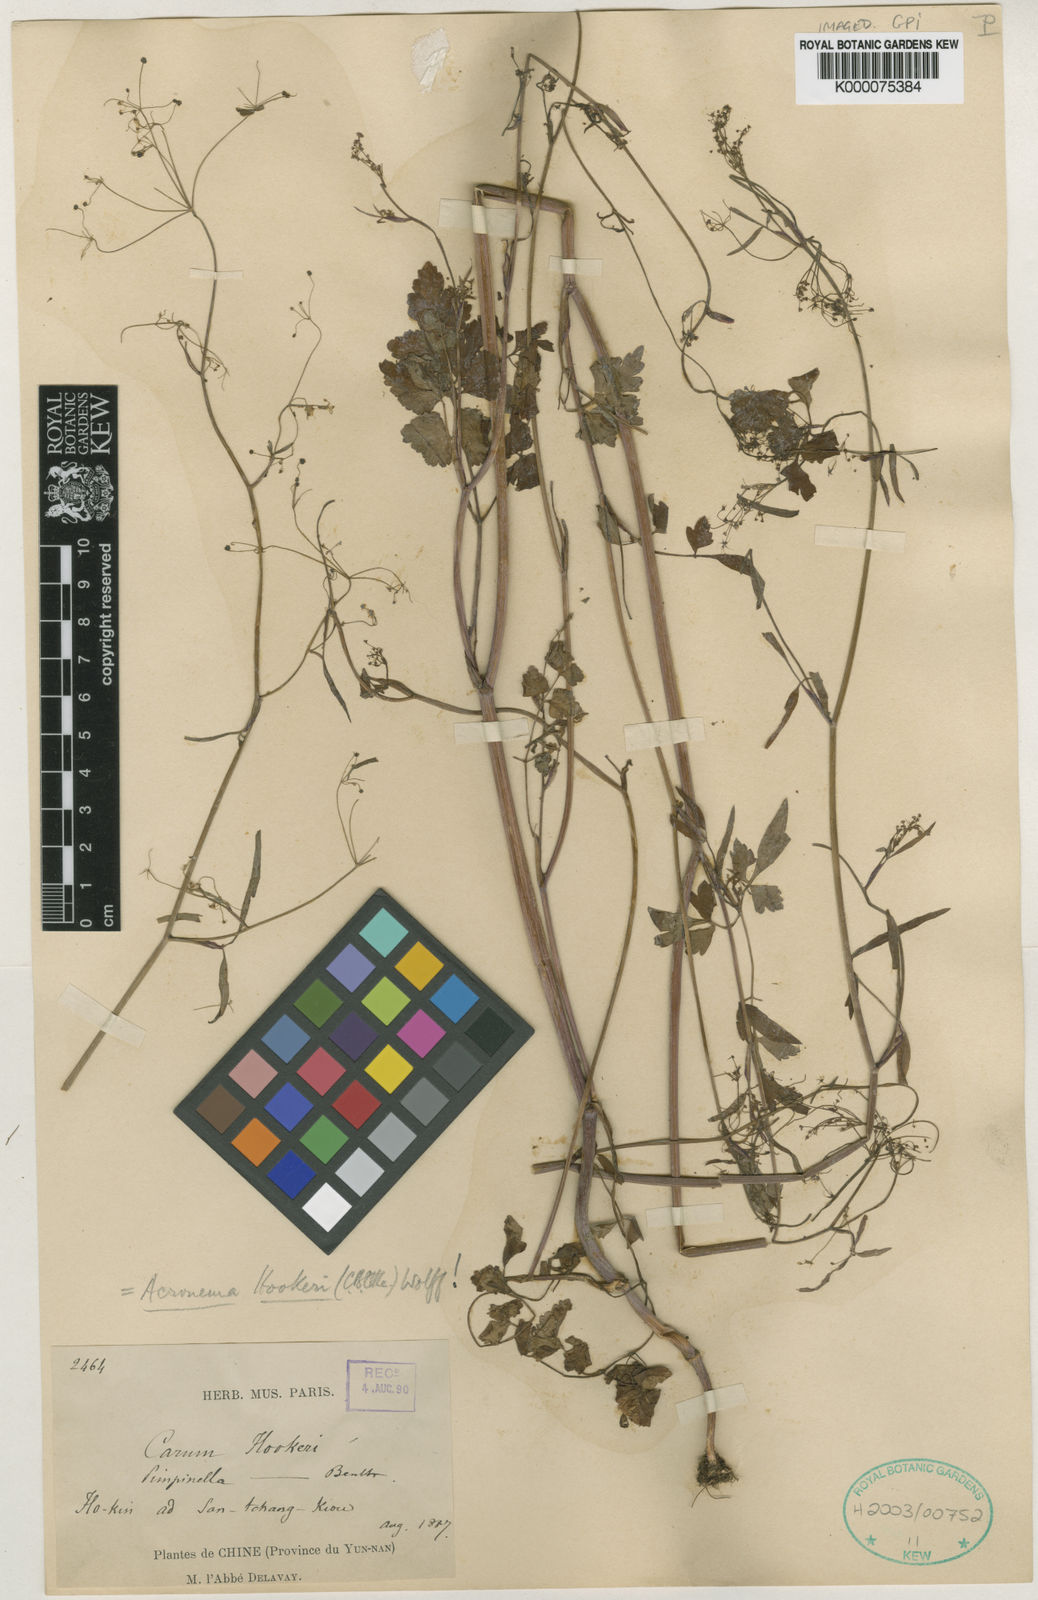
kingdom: Plantae
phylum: Tracheophyta
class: Magnoliopsida
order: Apiales
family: Apiaceae
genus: Acronema
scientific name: Acronema hookeri
